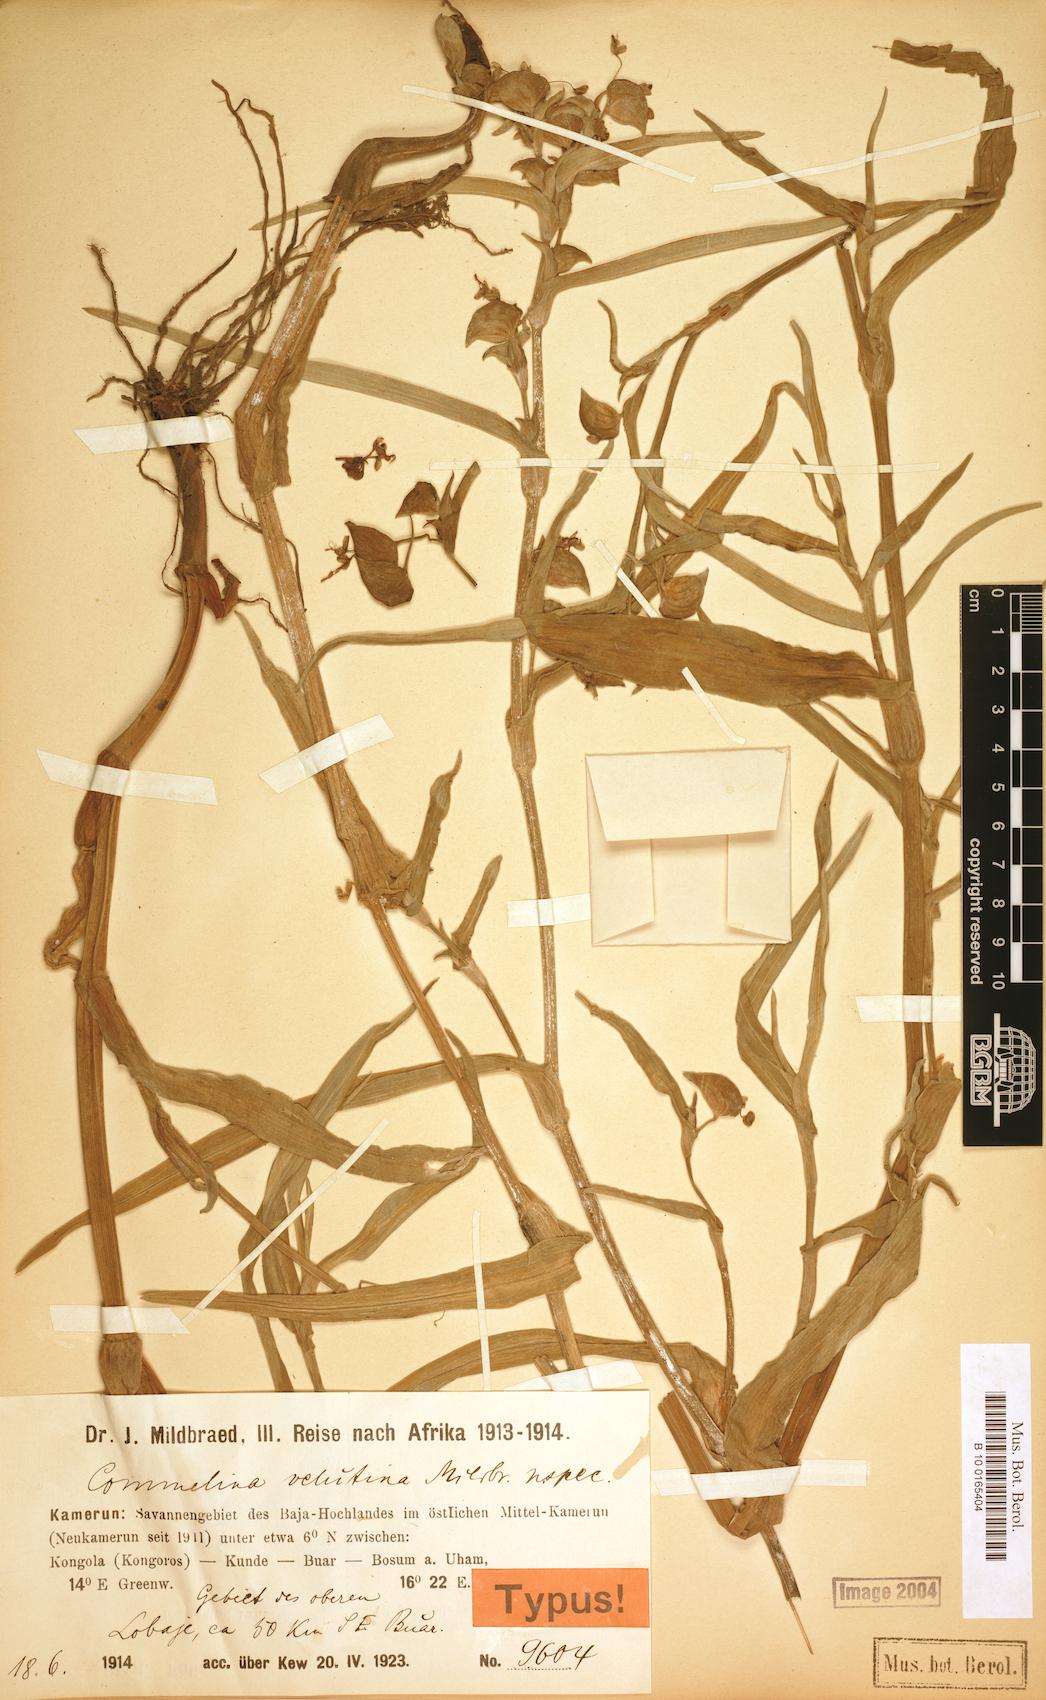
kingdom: Plantae
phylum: Tracheophyta
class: Liliopsida
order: Commelinales
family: Commelinaceae
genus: Commelina
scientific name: Commelina velutina
